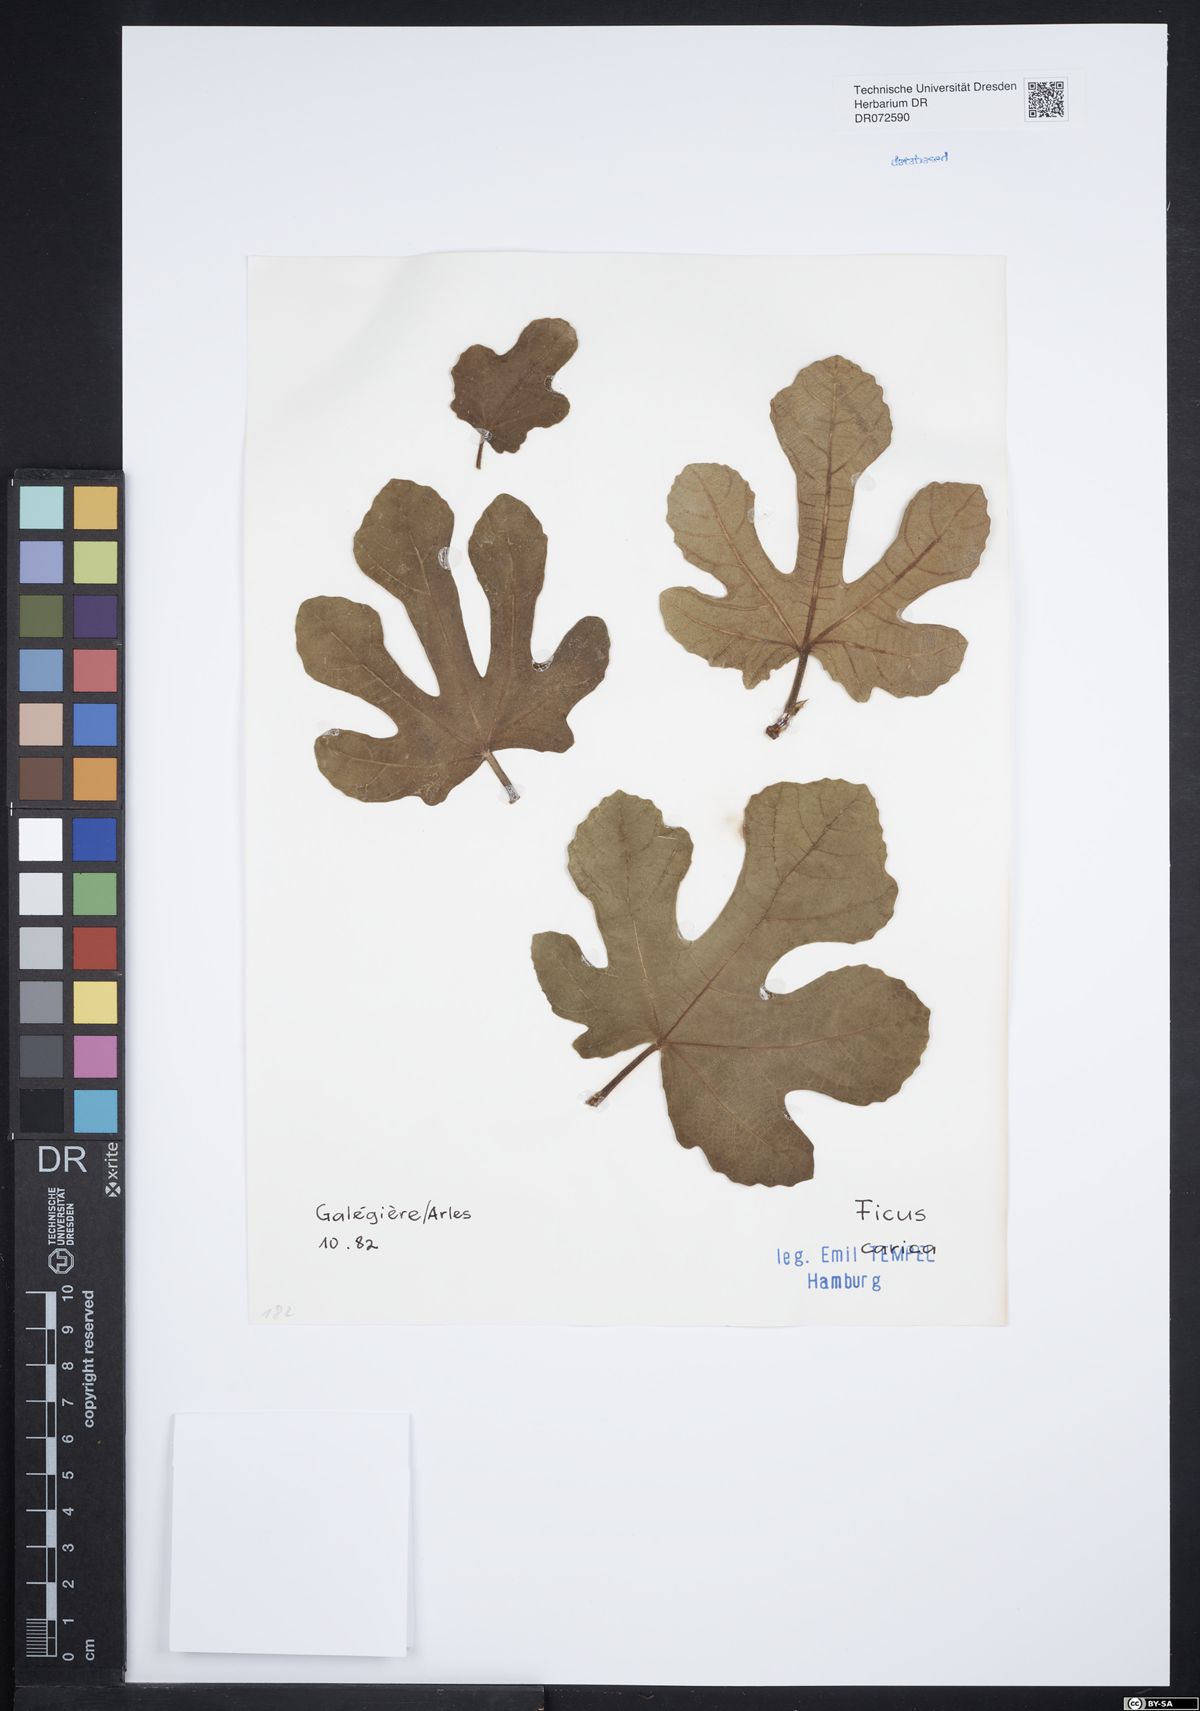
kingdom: Plantae
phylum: Tracheophyta
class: Magnoliopsida
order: Rosales
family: Moraceae
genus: Ficus
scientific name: Ficus carica
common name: Fig
